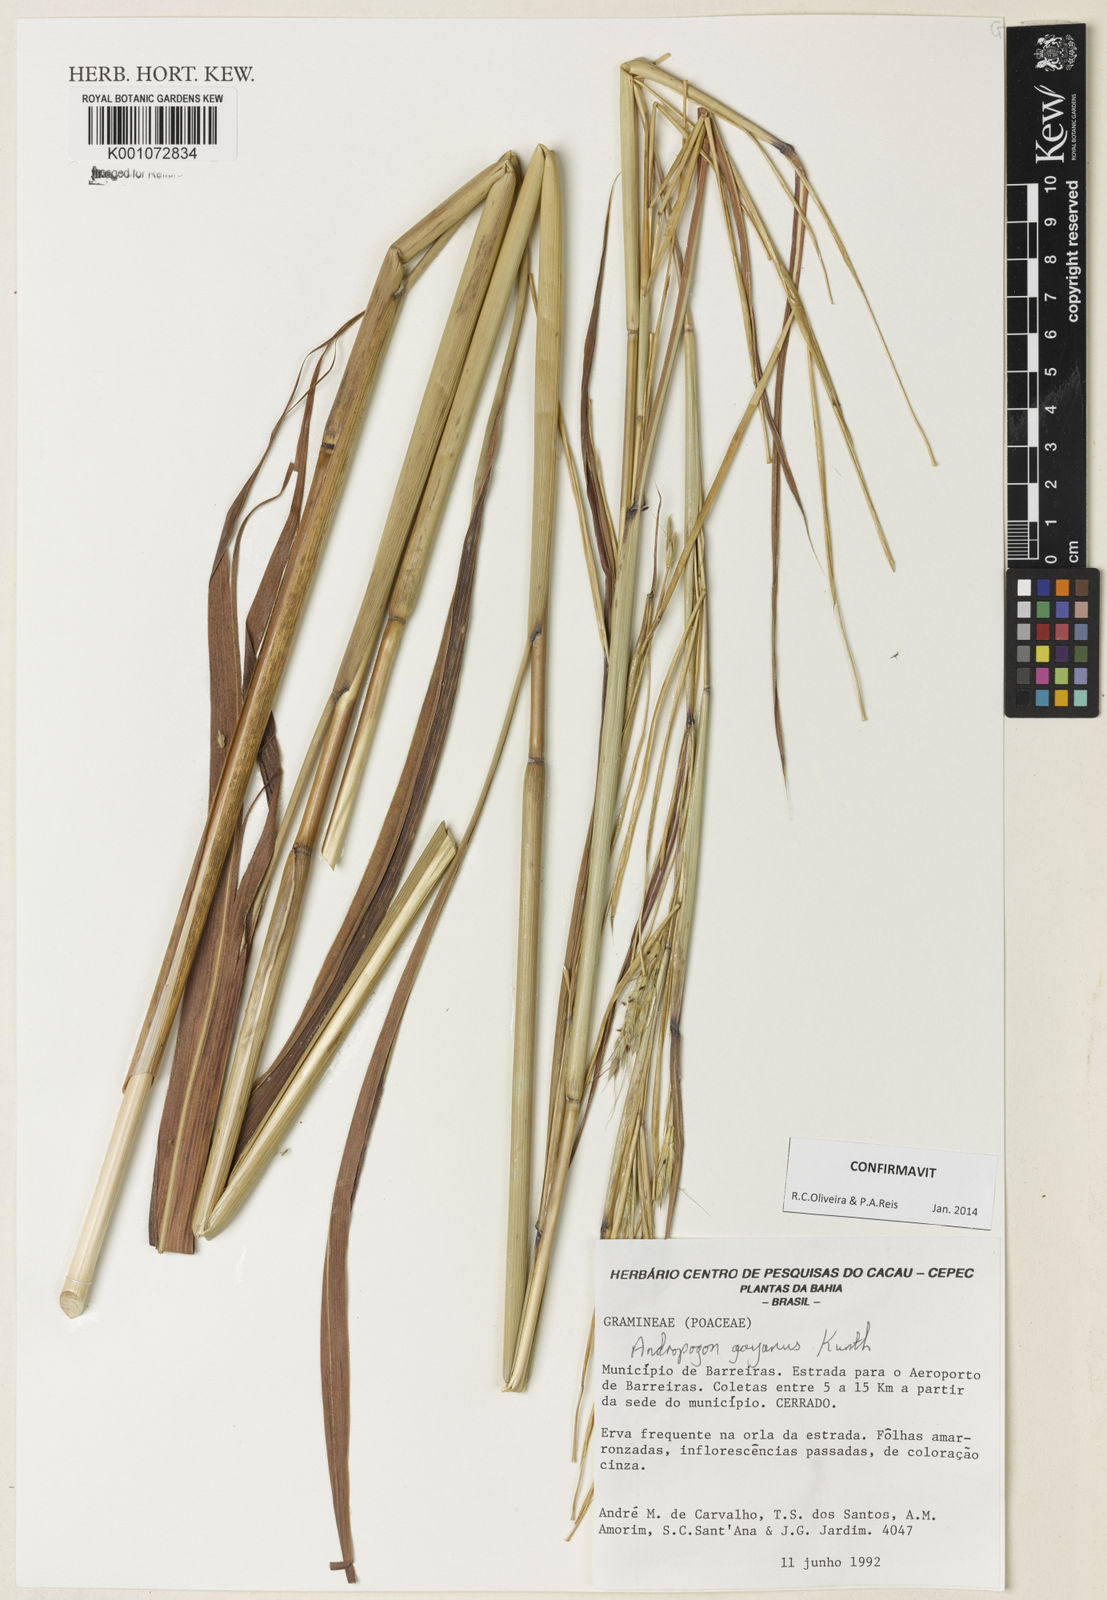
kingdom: Plantae
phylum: Tracheophyta
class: Liliopsida
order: Poales
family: Poaceae
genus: Andropogon
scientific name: Andropogon gayanus
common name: Tambuki grass
